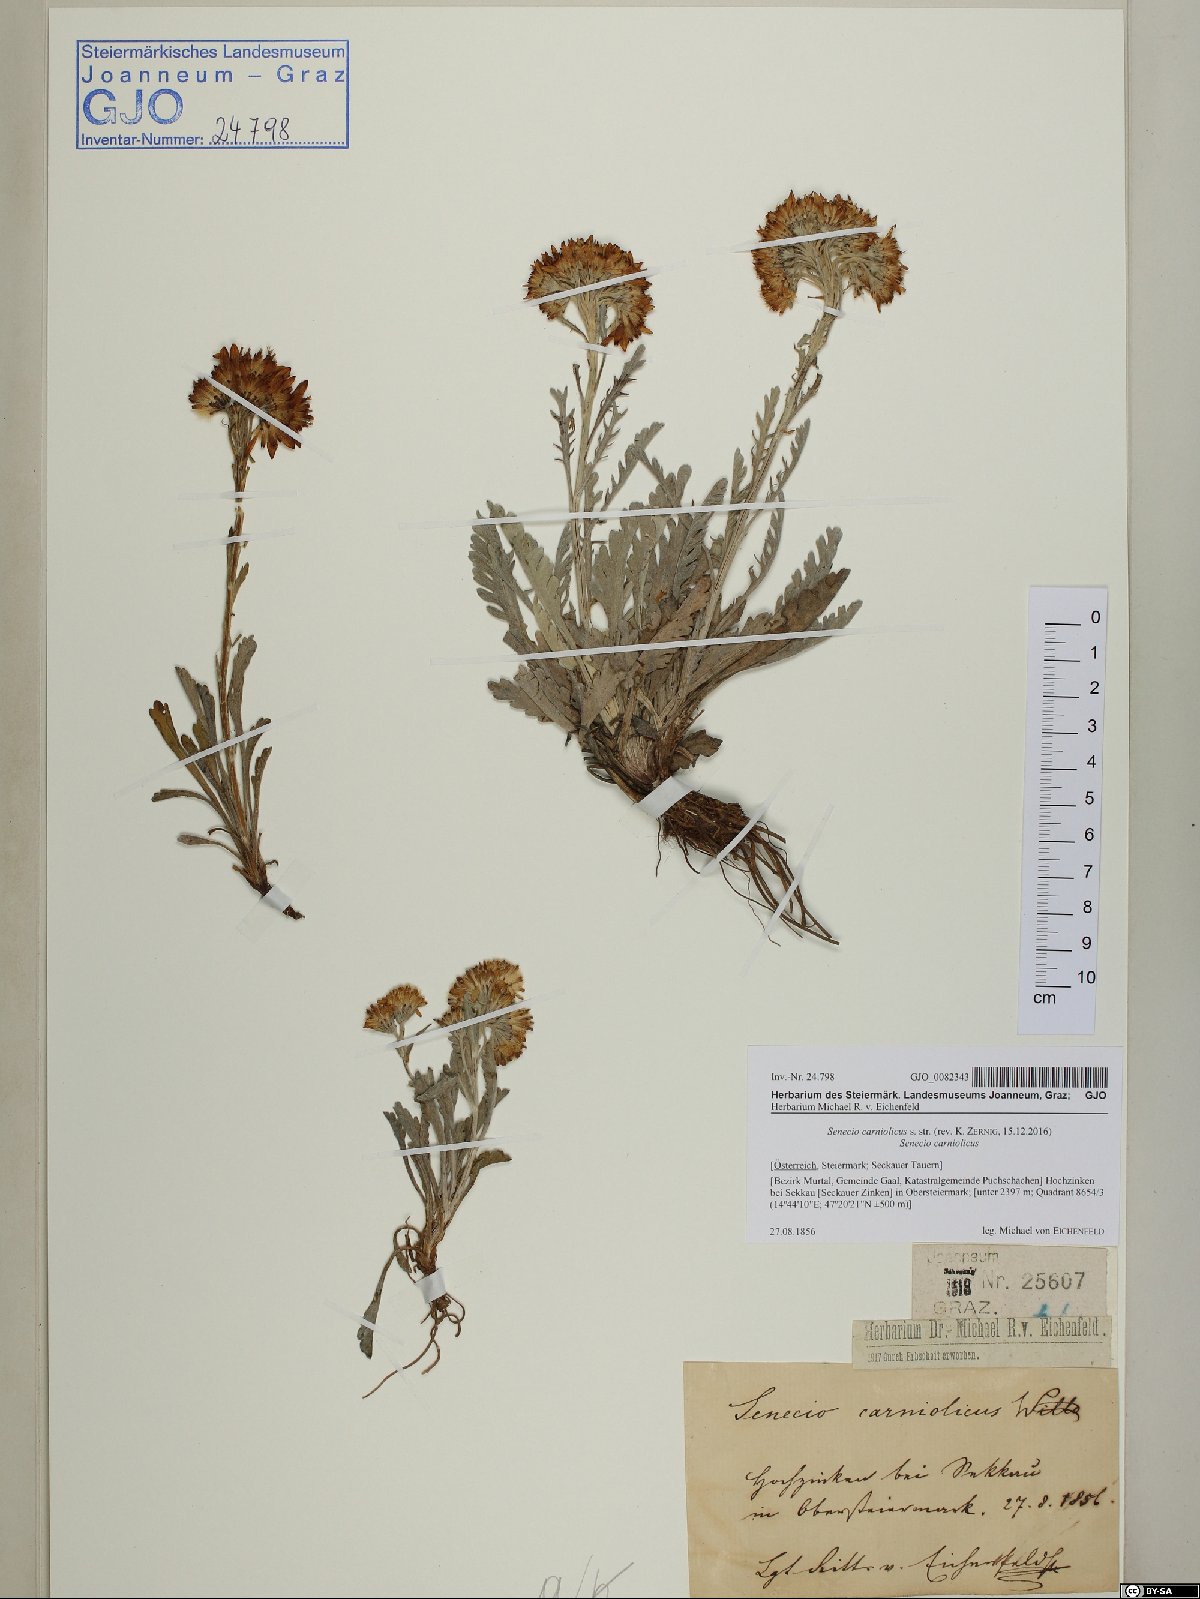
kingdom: Plantae
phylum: Tracheophyta
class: Magnoliopsida
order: Asterales
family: Asteraceae
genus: Jacobaea
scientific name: Jacobaea carniolica
